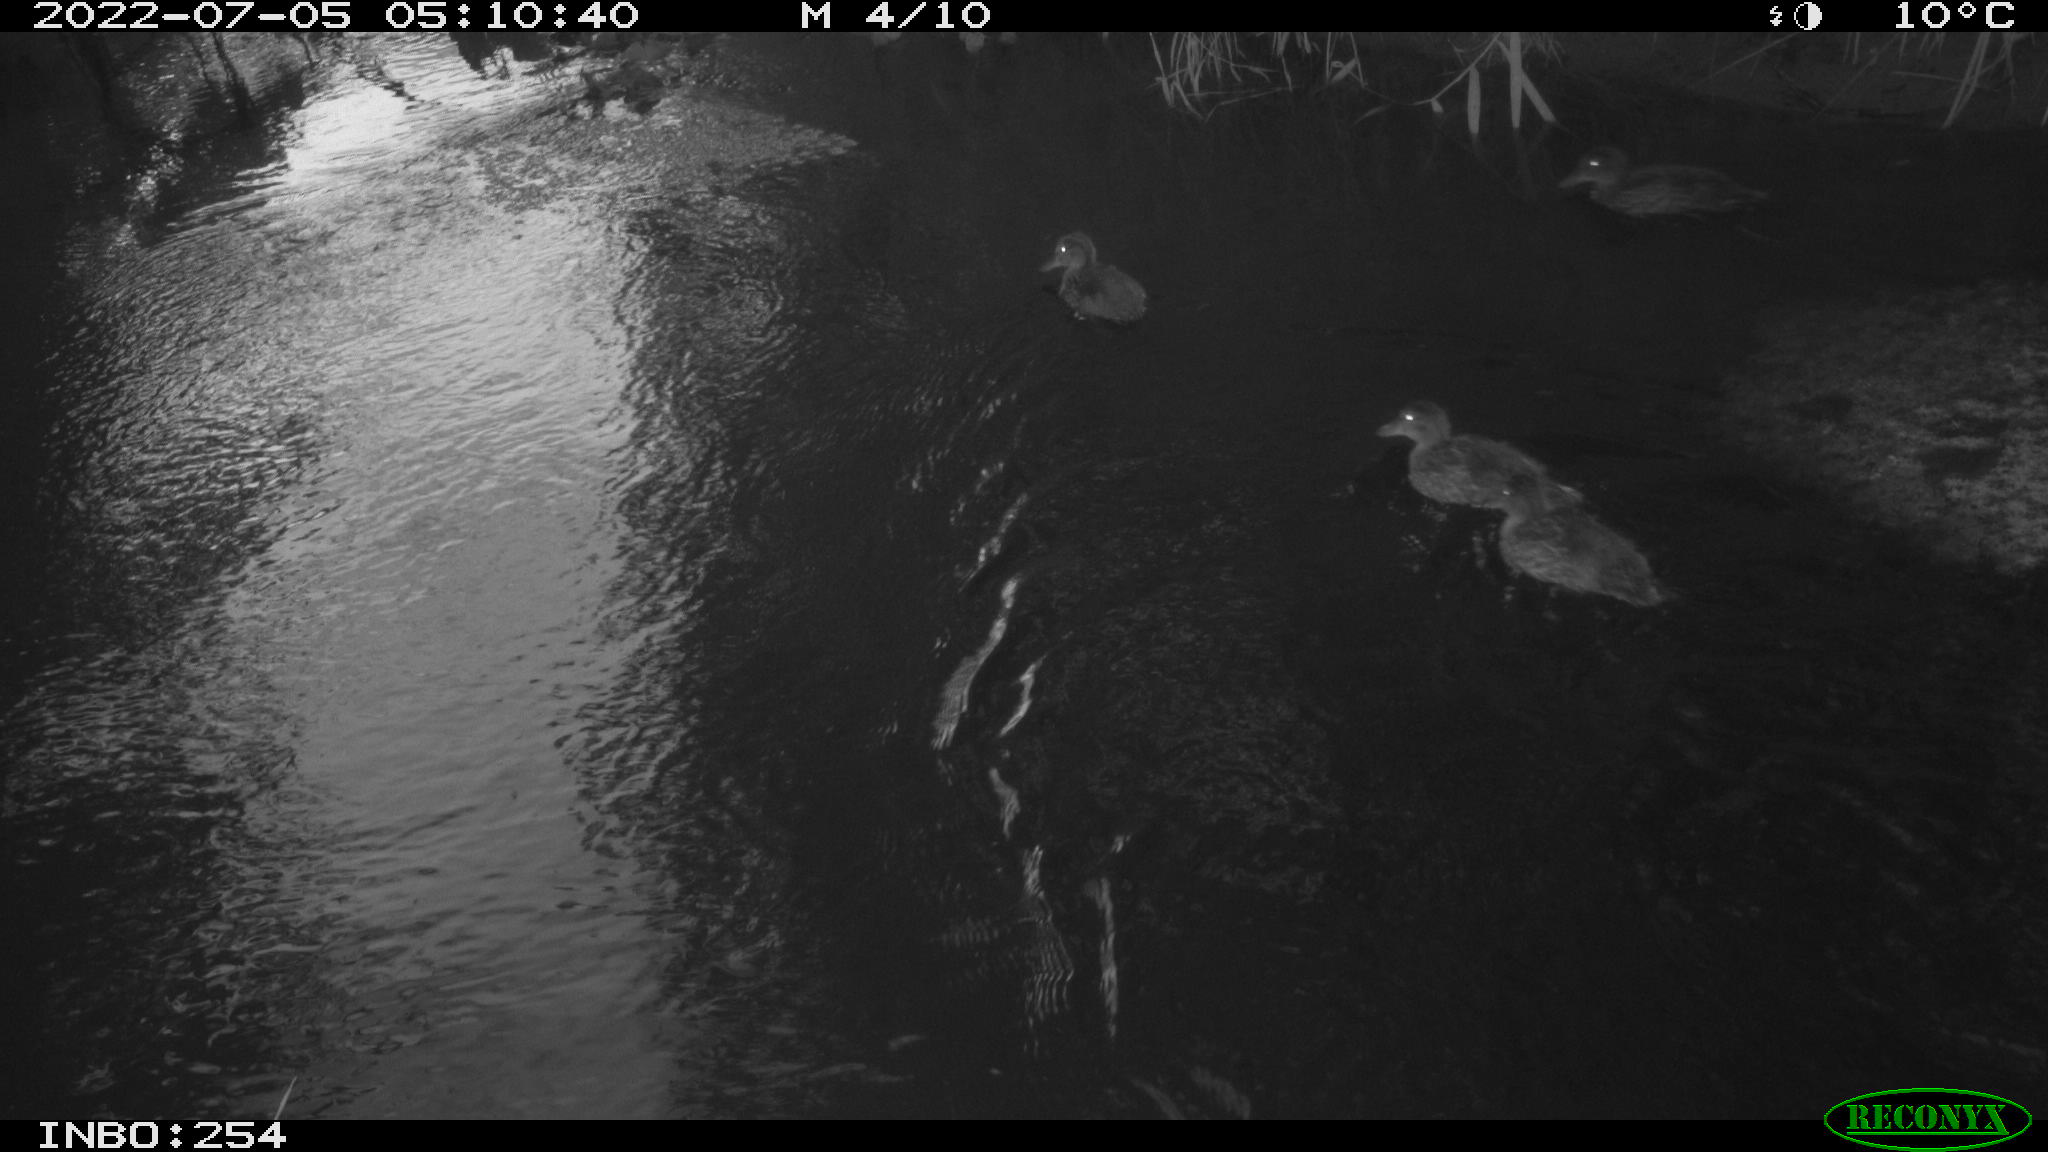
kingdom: Animalia
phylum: Chordata
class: Aves
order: Anseriformes
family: Anatidae
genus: Anas
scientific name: Anas platyrhynchos
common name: Mallard
